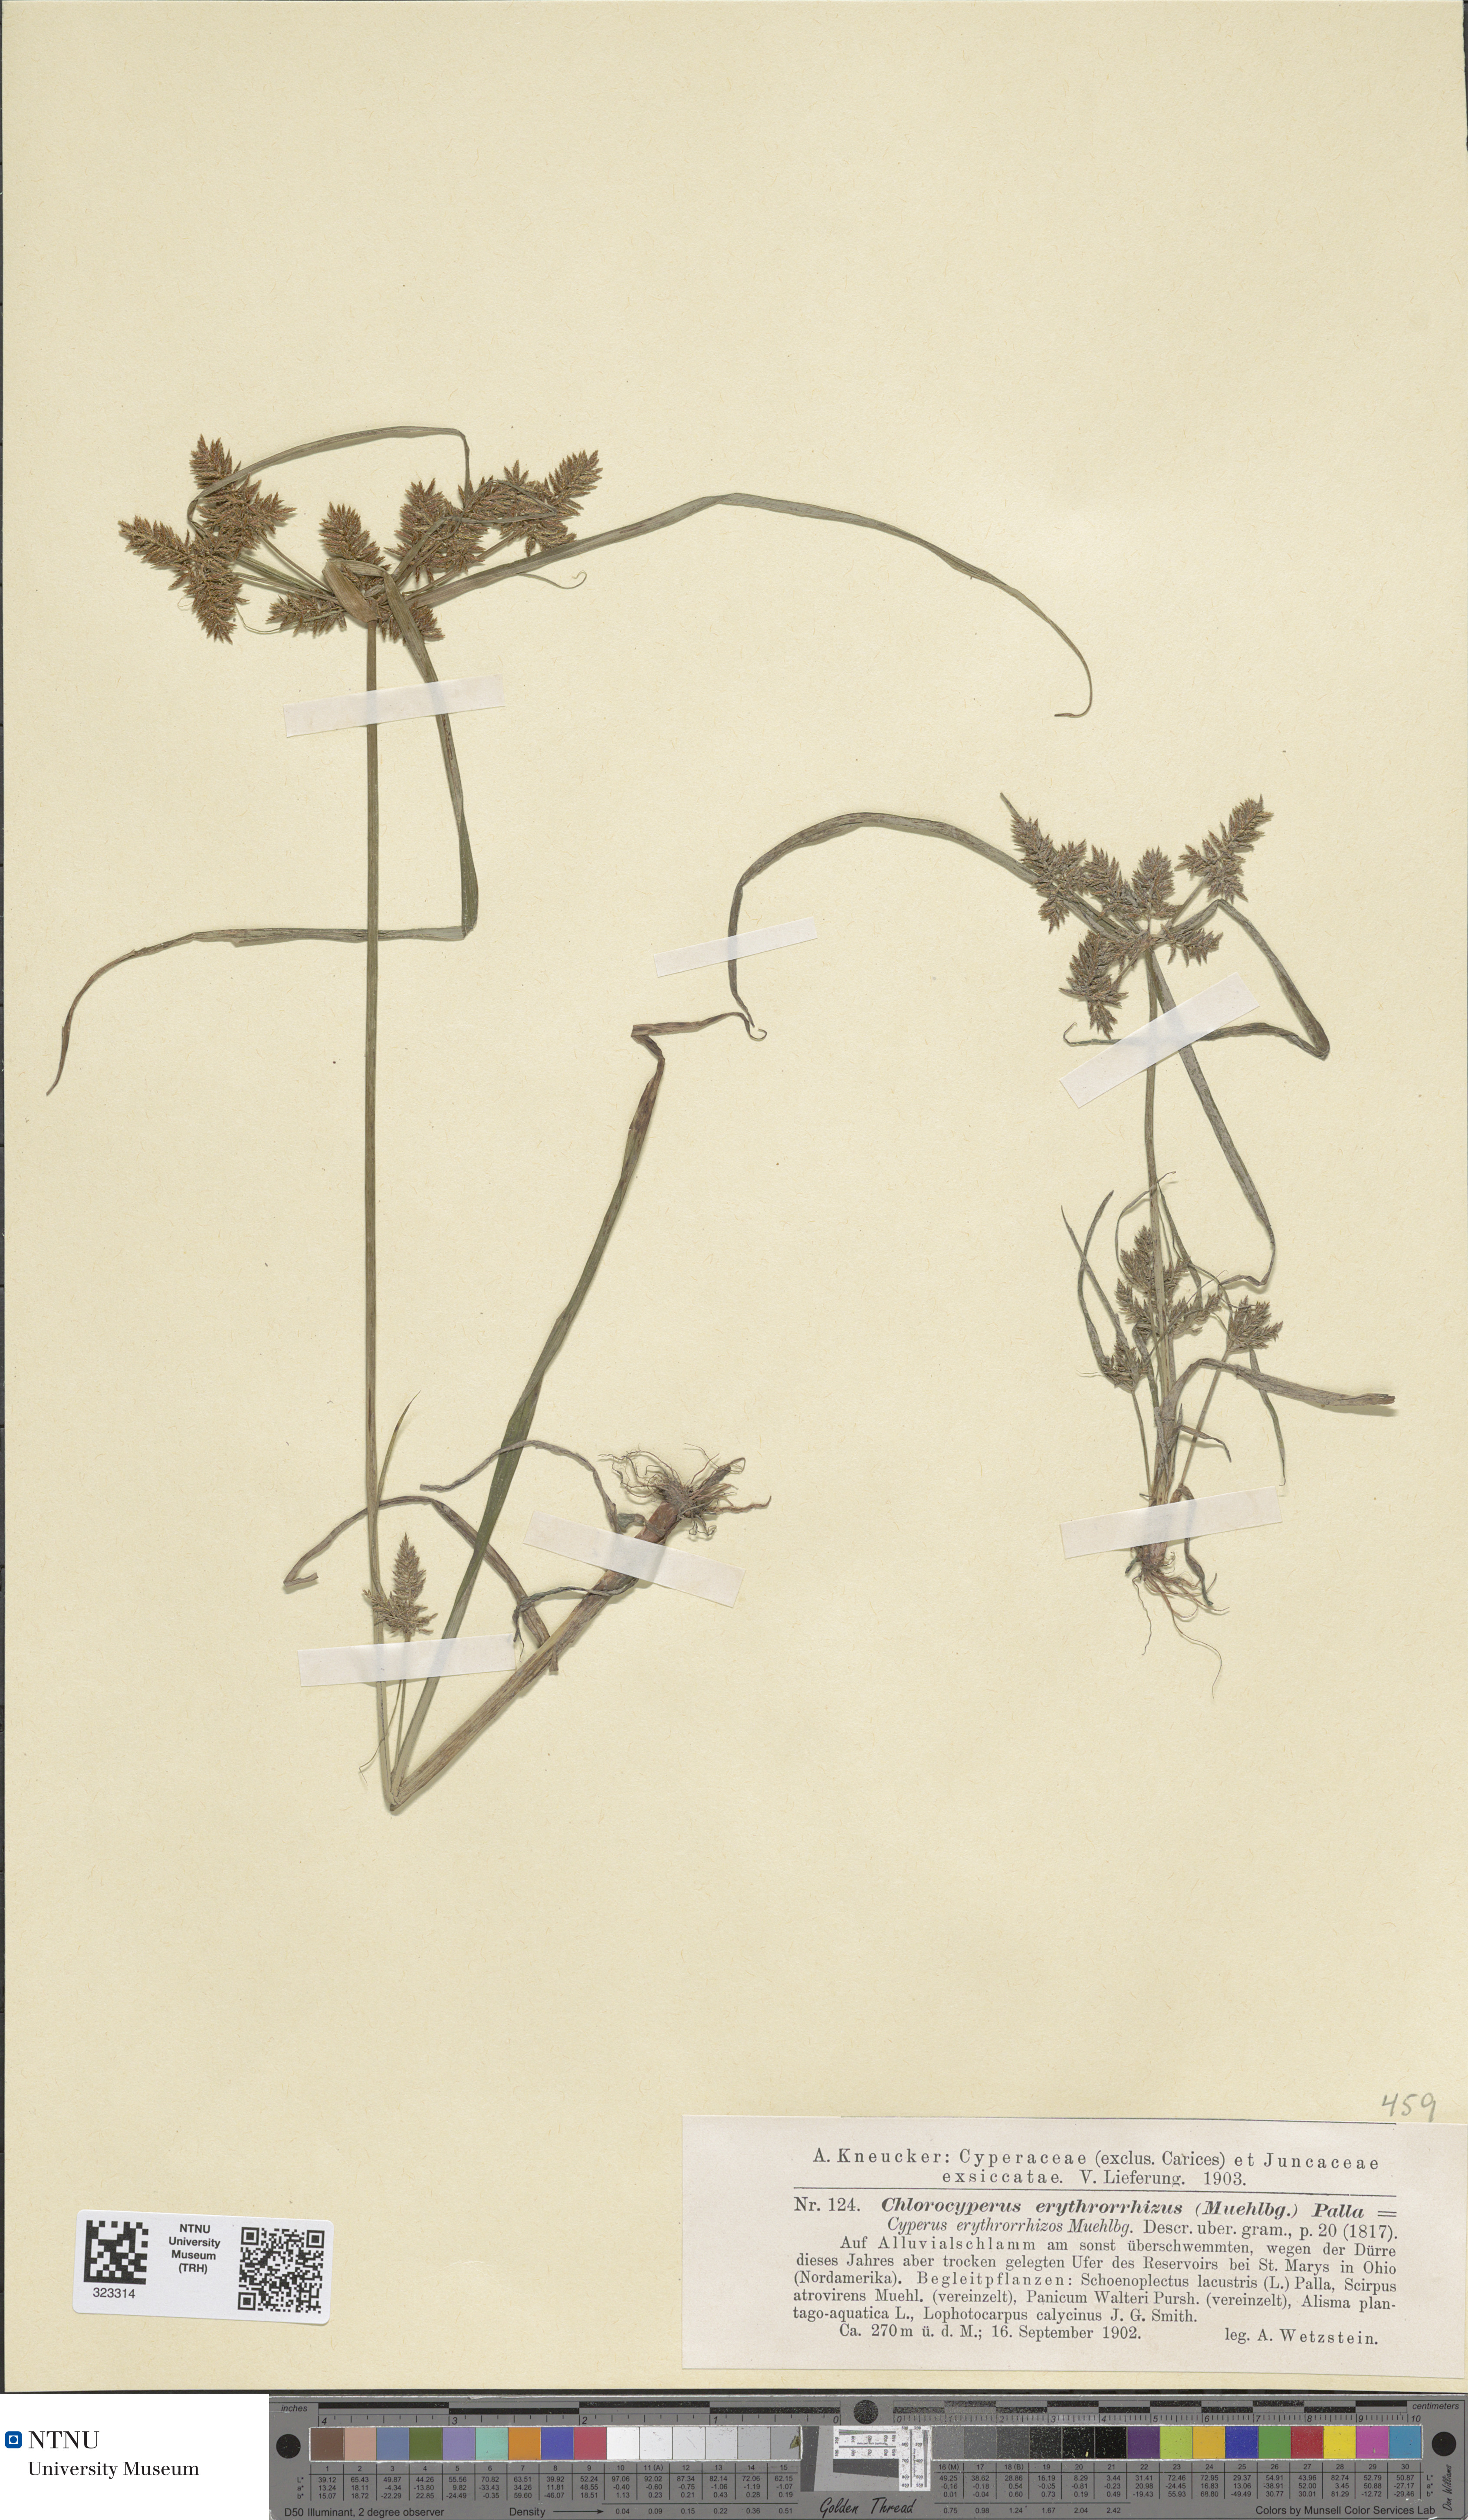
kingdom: Plantae
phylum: Tracheophyta
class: Liliopsida
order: Poales
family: Cyperaceae
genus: Cyperus
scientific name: Cyperus erythrorhizos
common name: Red-root flat sedge
